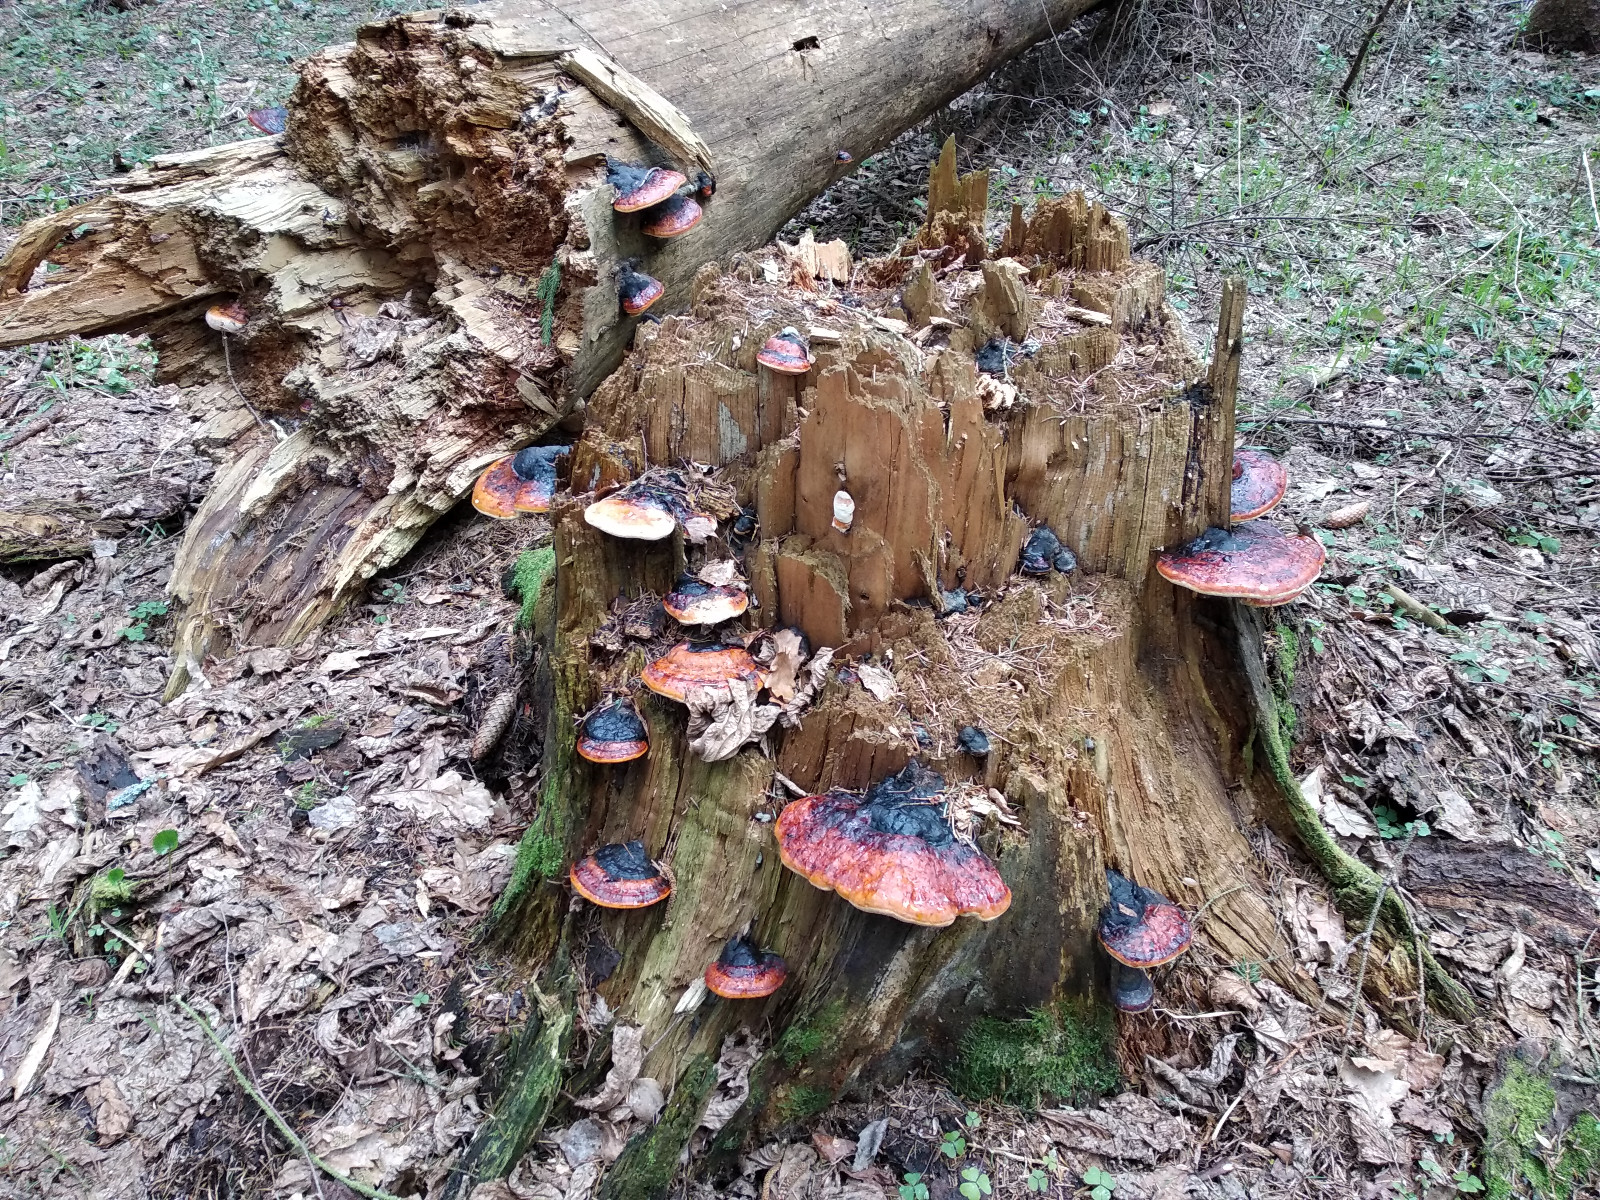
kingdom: Fungi
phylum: Basidiomycota
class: Agaricomycetes
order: Polyporales
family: Fomitopsidaceae
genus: Fomitopsis
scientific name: Fomitopsis pinicola
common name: randbæltet hovporesvamp
